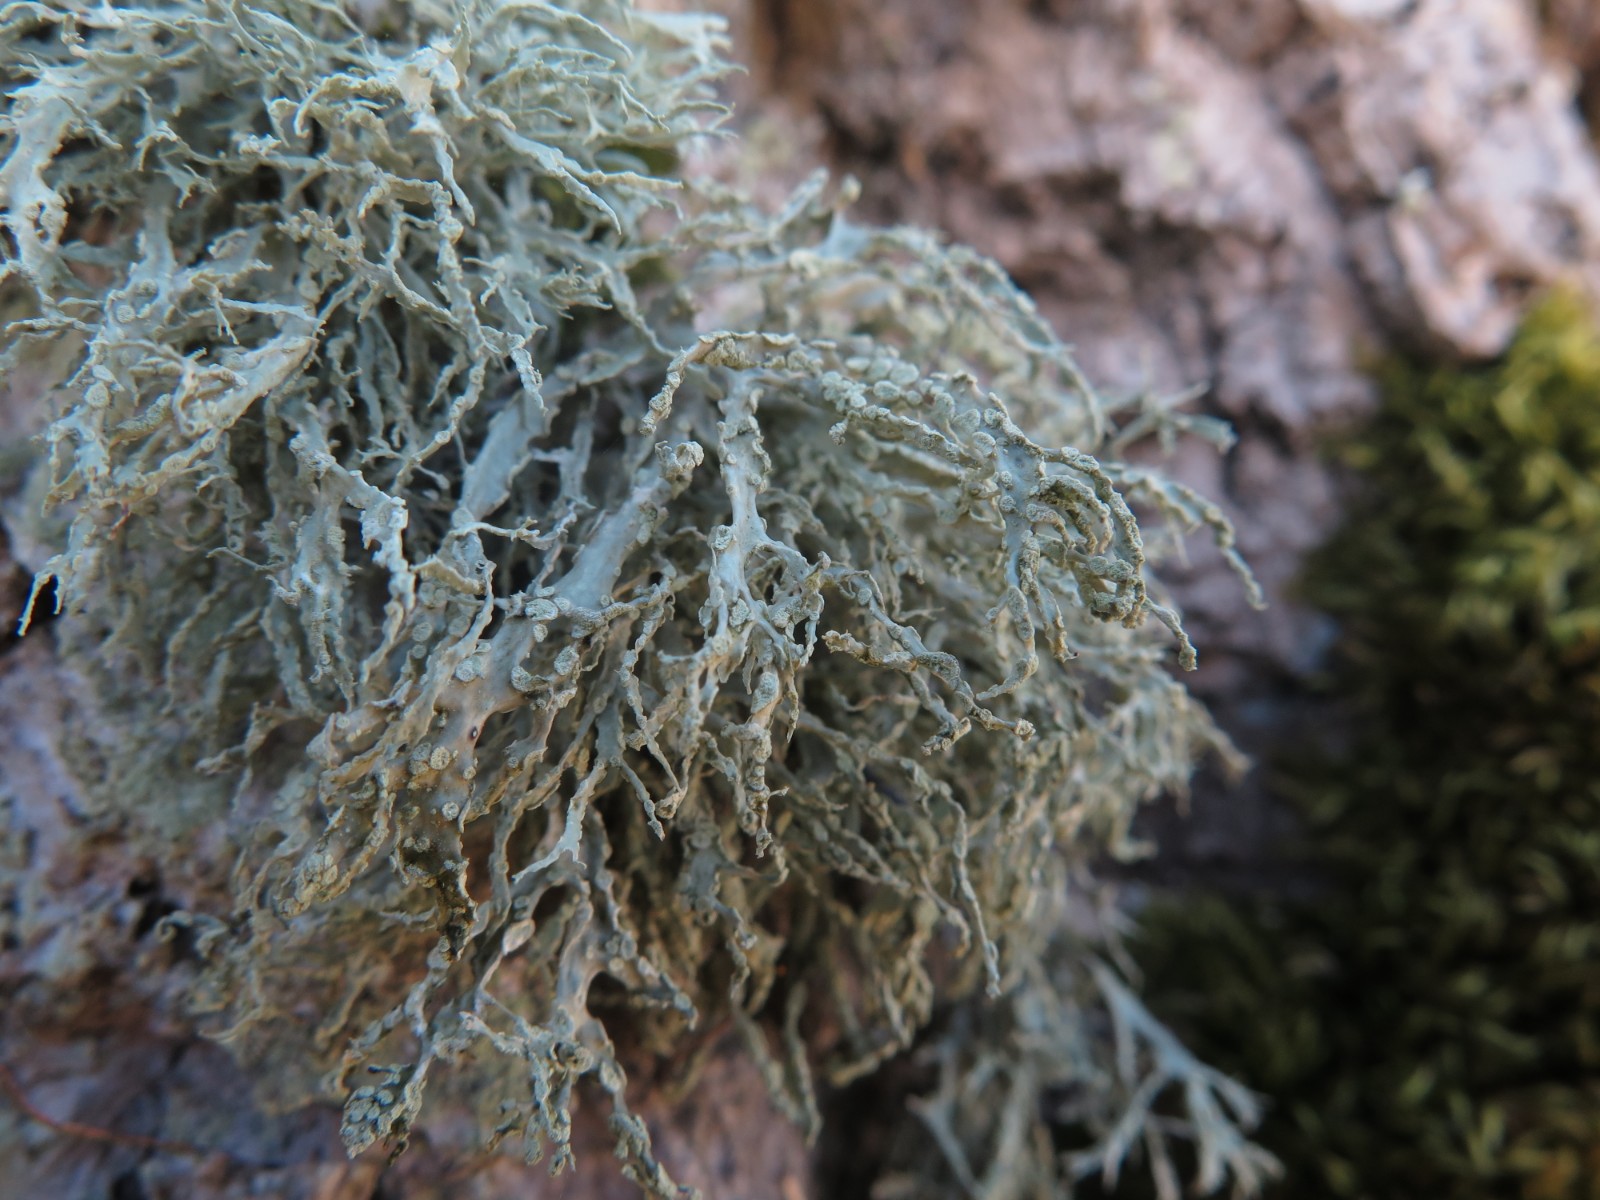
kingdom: Fungi
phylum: Ascomycota
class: Lecanoromycetes
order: Lecanorales
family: Ramalinaceae
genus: Ramalina
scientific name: Ramalina farinacea
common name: melet grenlav
